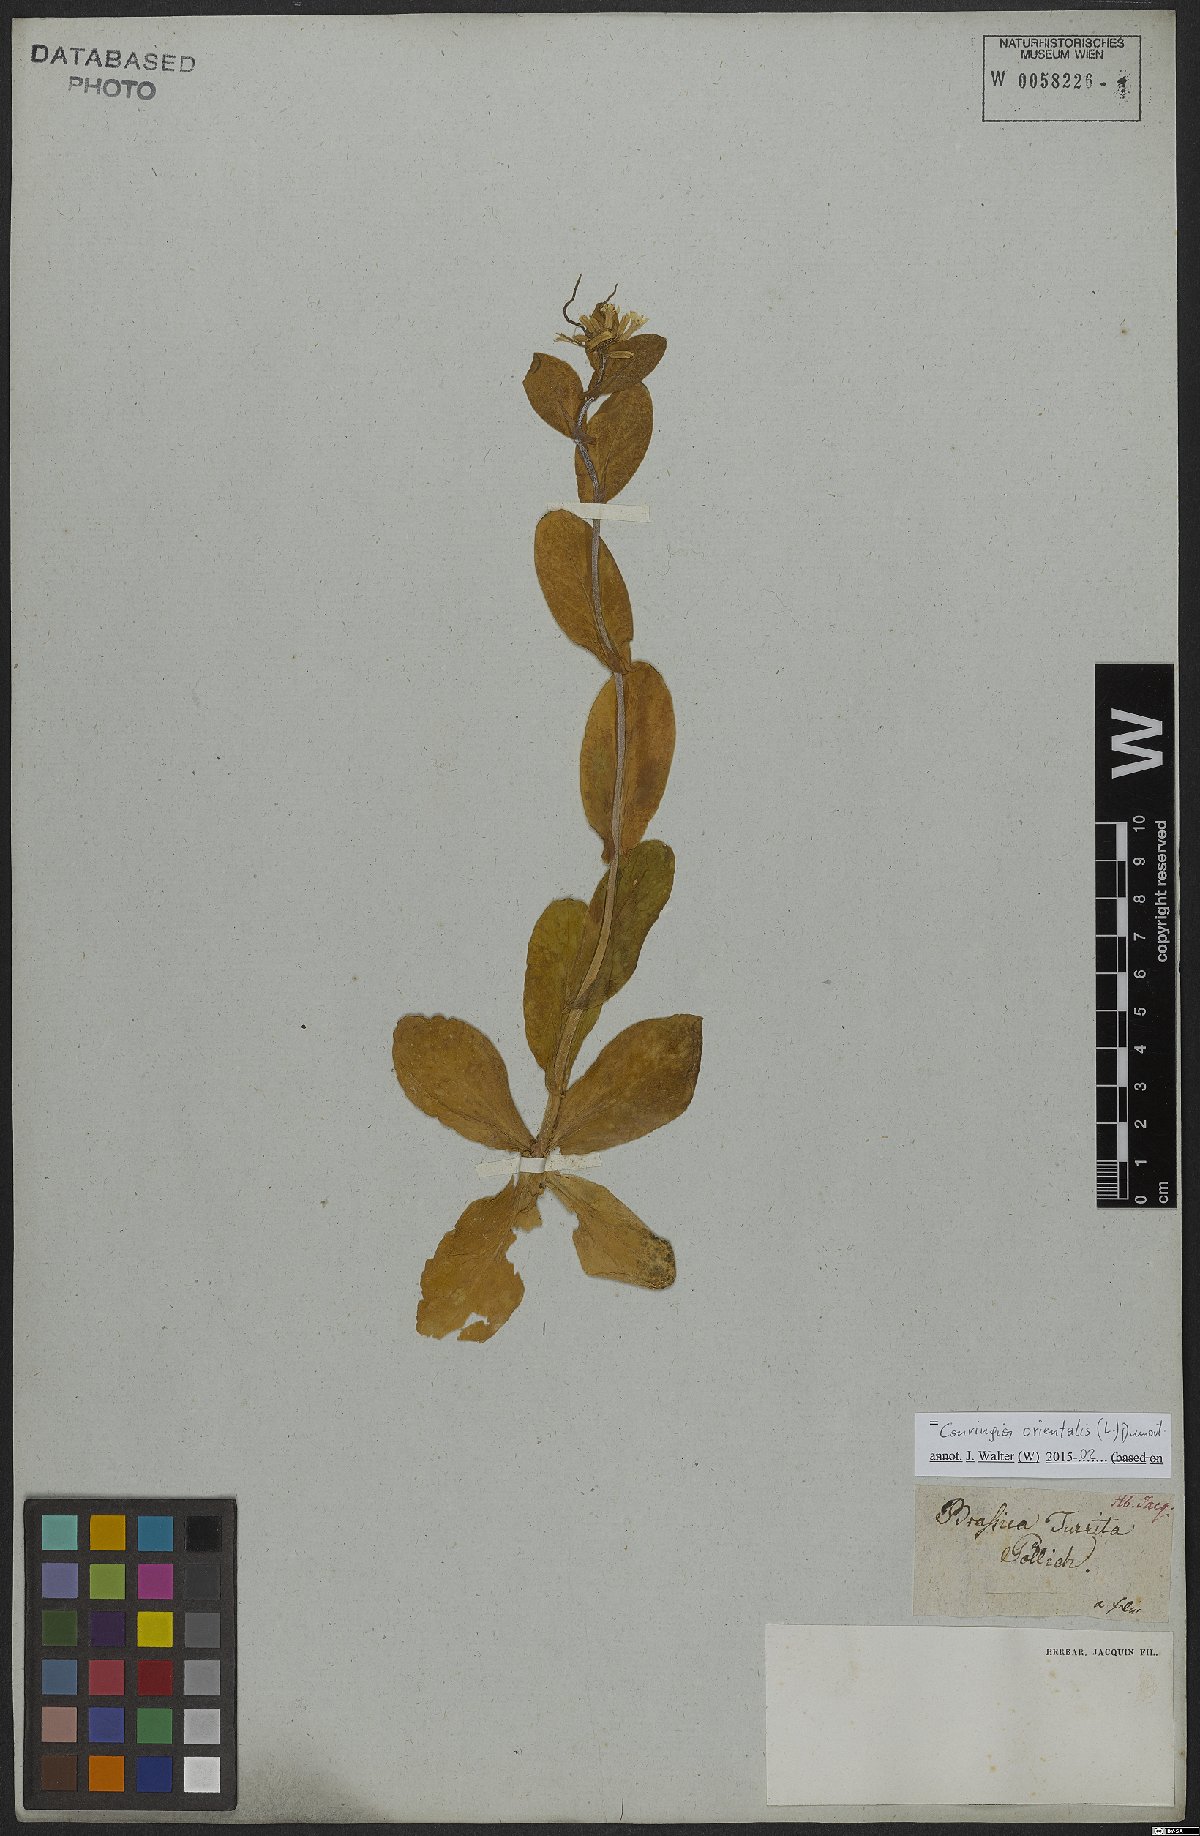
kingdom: Plantae
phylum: Tracheophyta
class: Magnoliopsida
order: Brassicales
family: Brassicaceae
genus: Conringia
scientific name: Conringia orientalis
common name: Hare's ear mustard
